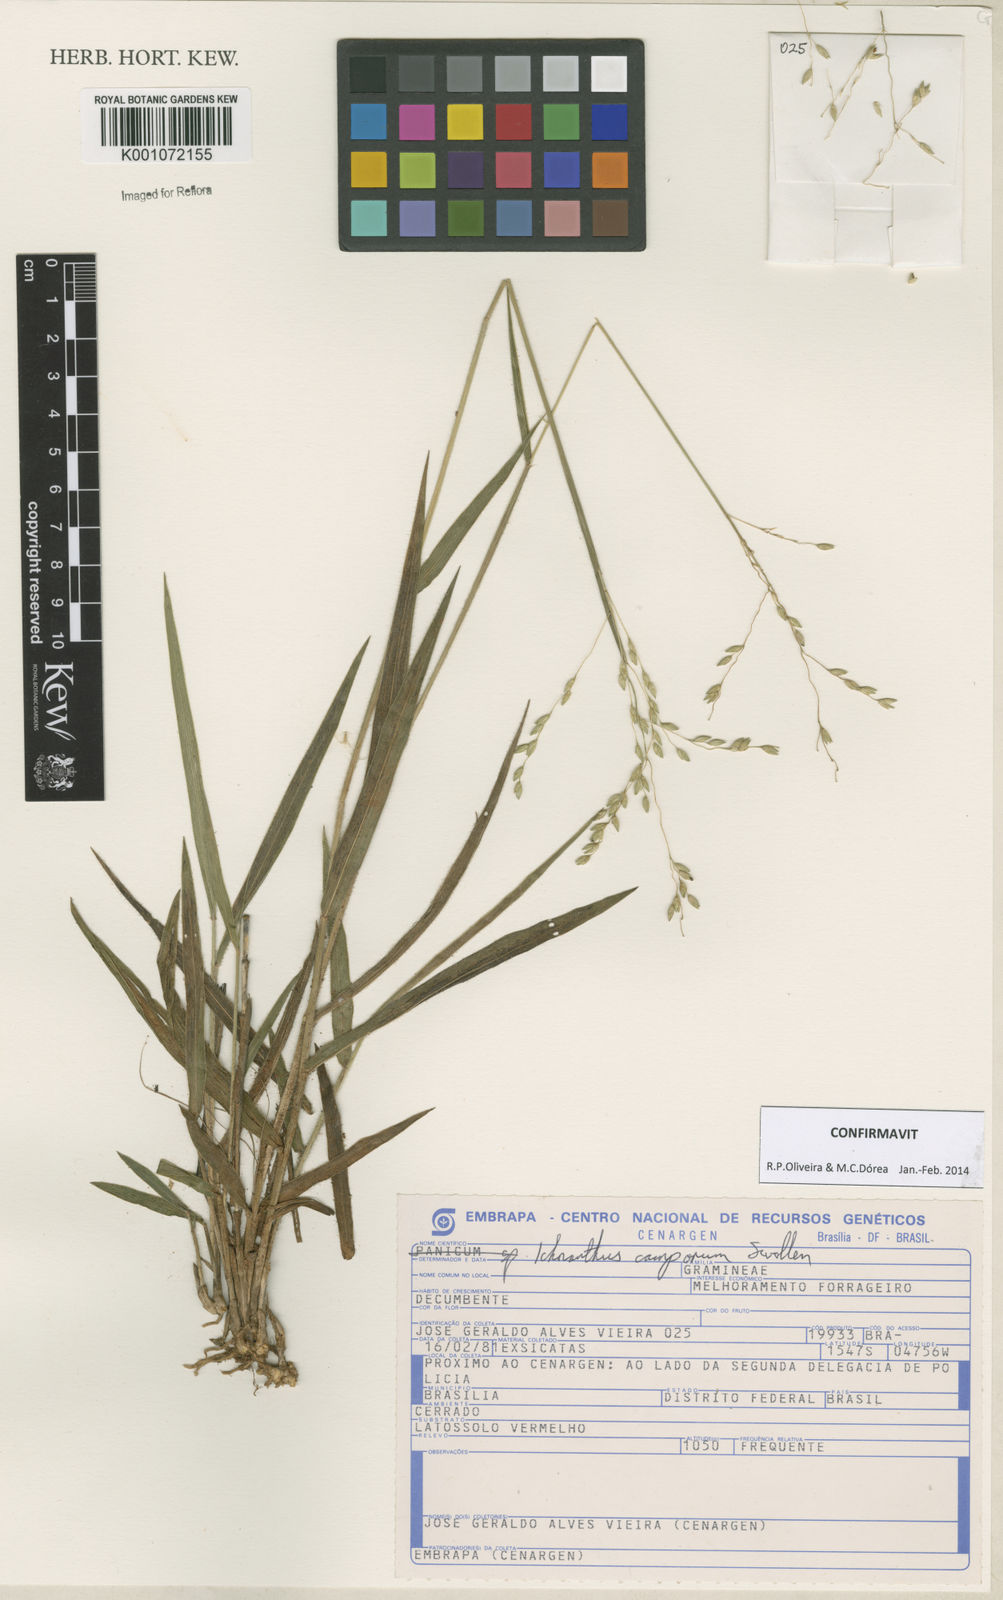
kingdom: Plantae
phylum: Tracheophyta
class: Liliopsida
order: Poales
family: Poaceae
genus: Oedochloa
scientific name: Oedochloa camporum
